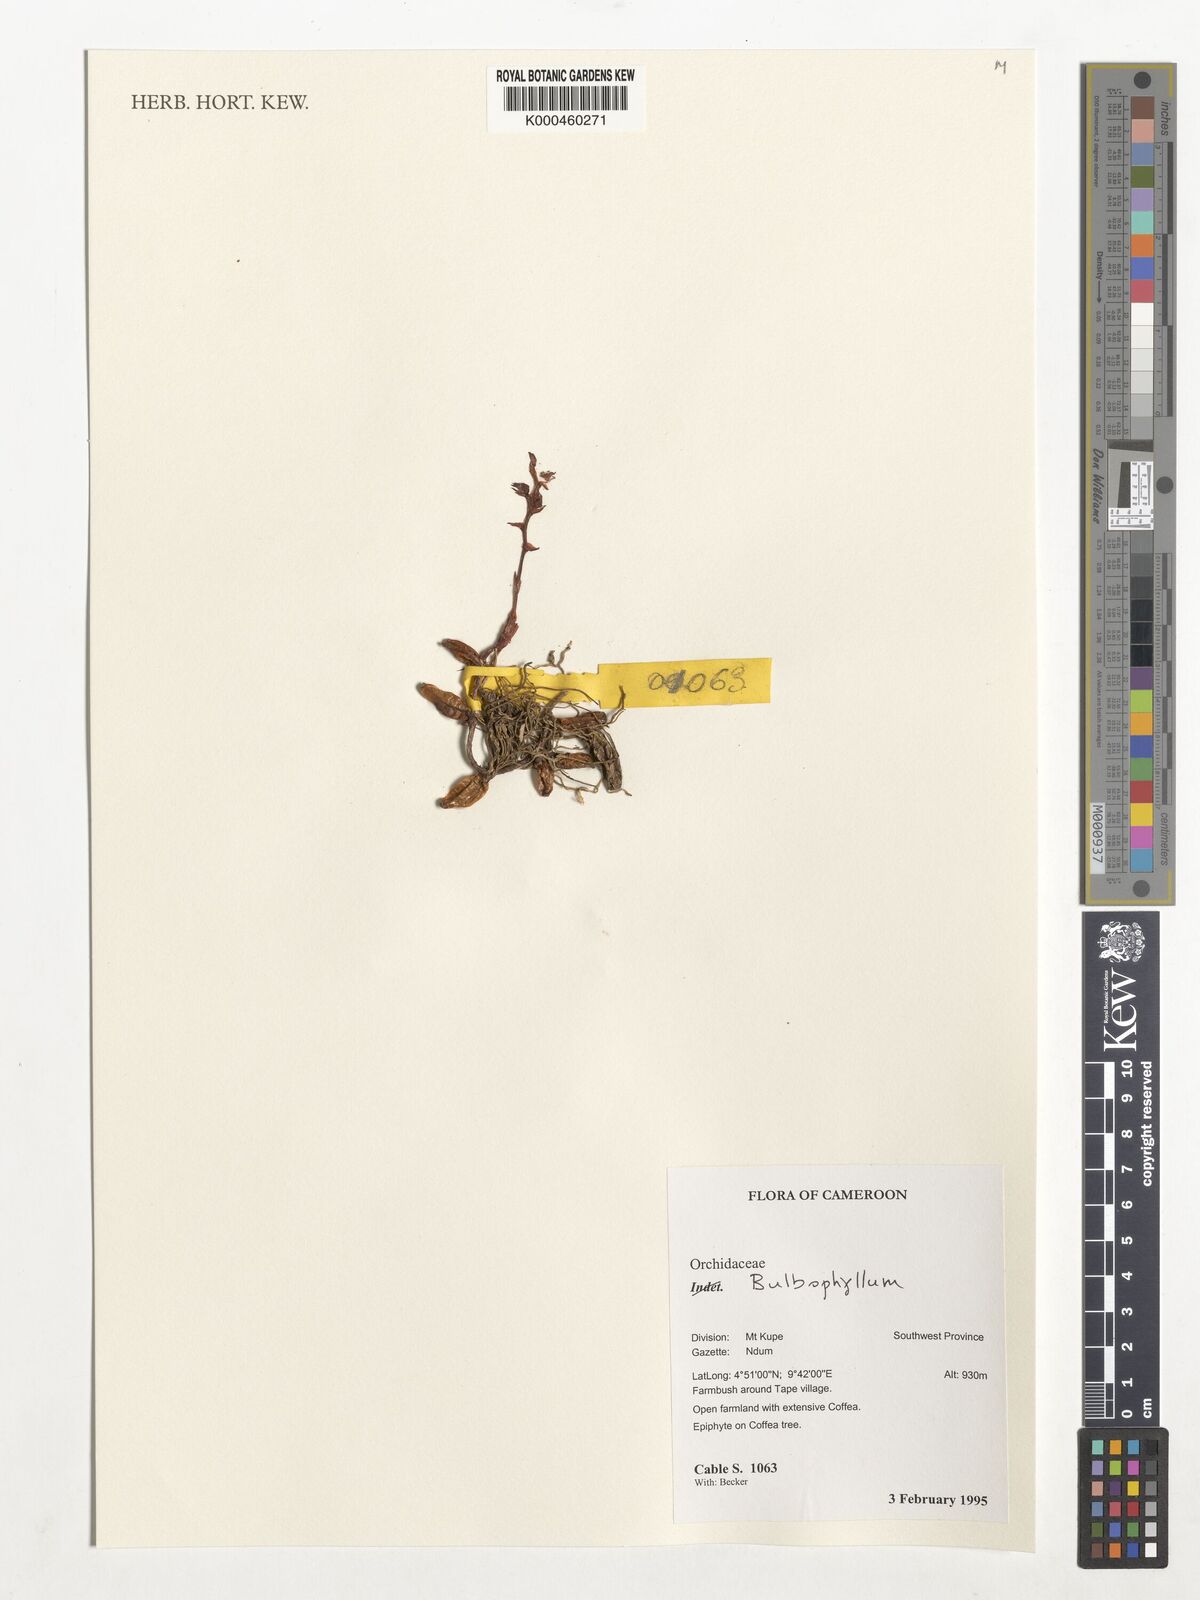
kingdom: Plantae
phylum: Tracheophyta
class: Liliopsida
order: Asparagales
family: Orchidaceae
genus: Bulbophyllum
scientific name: Bulbophyllum
